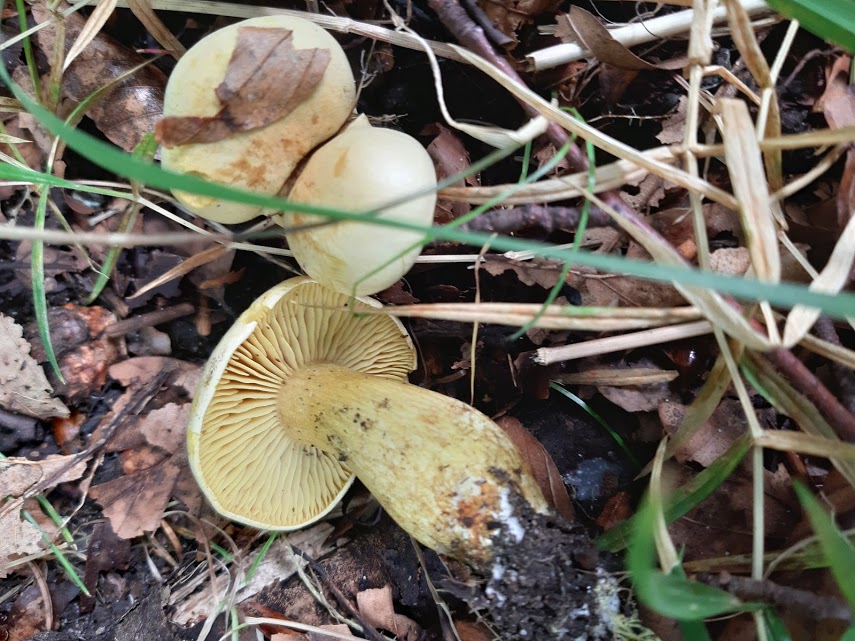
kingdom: Fungi
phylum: Basidiomycota
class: Agaricomycetes
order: Agaricales
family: Tricholomataceae
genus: Tricholoma
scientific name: Tricholoma sulphureum
